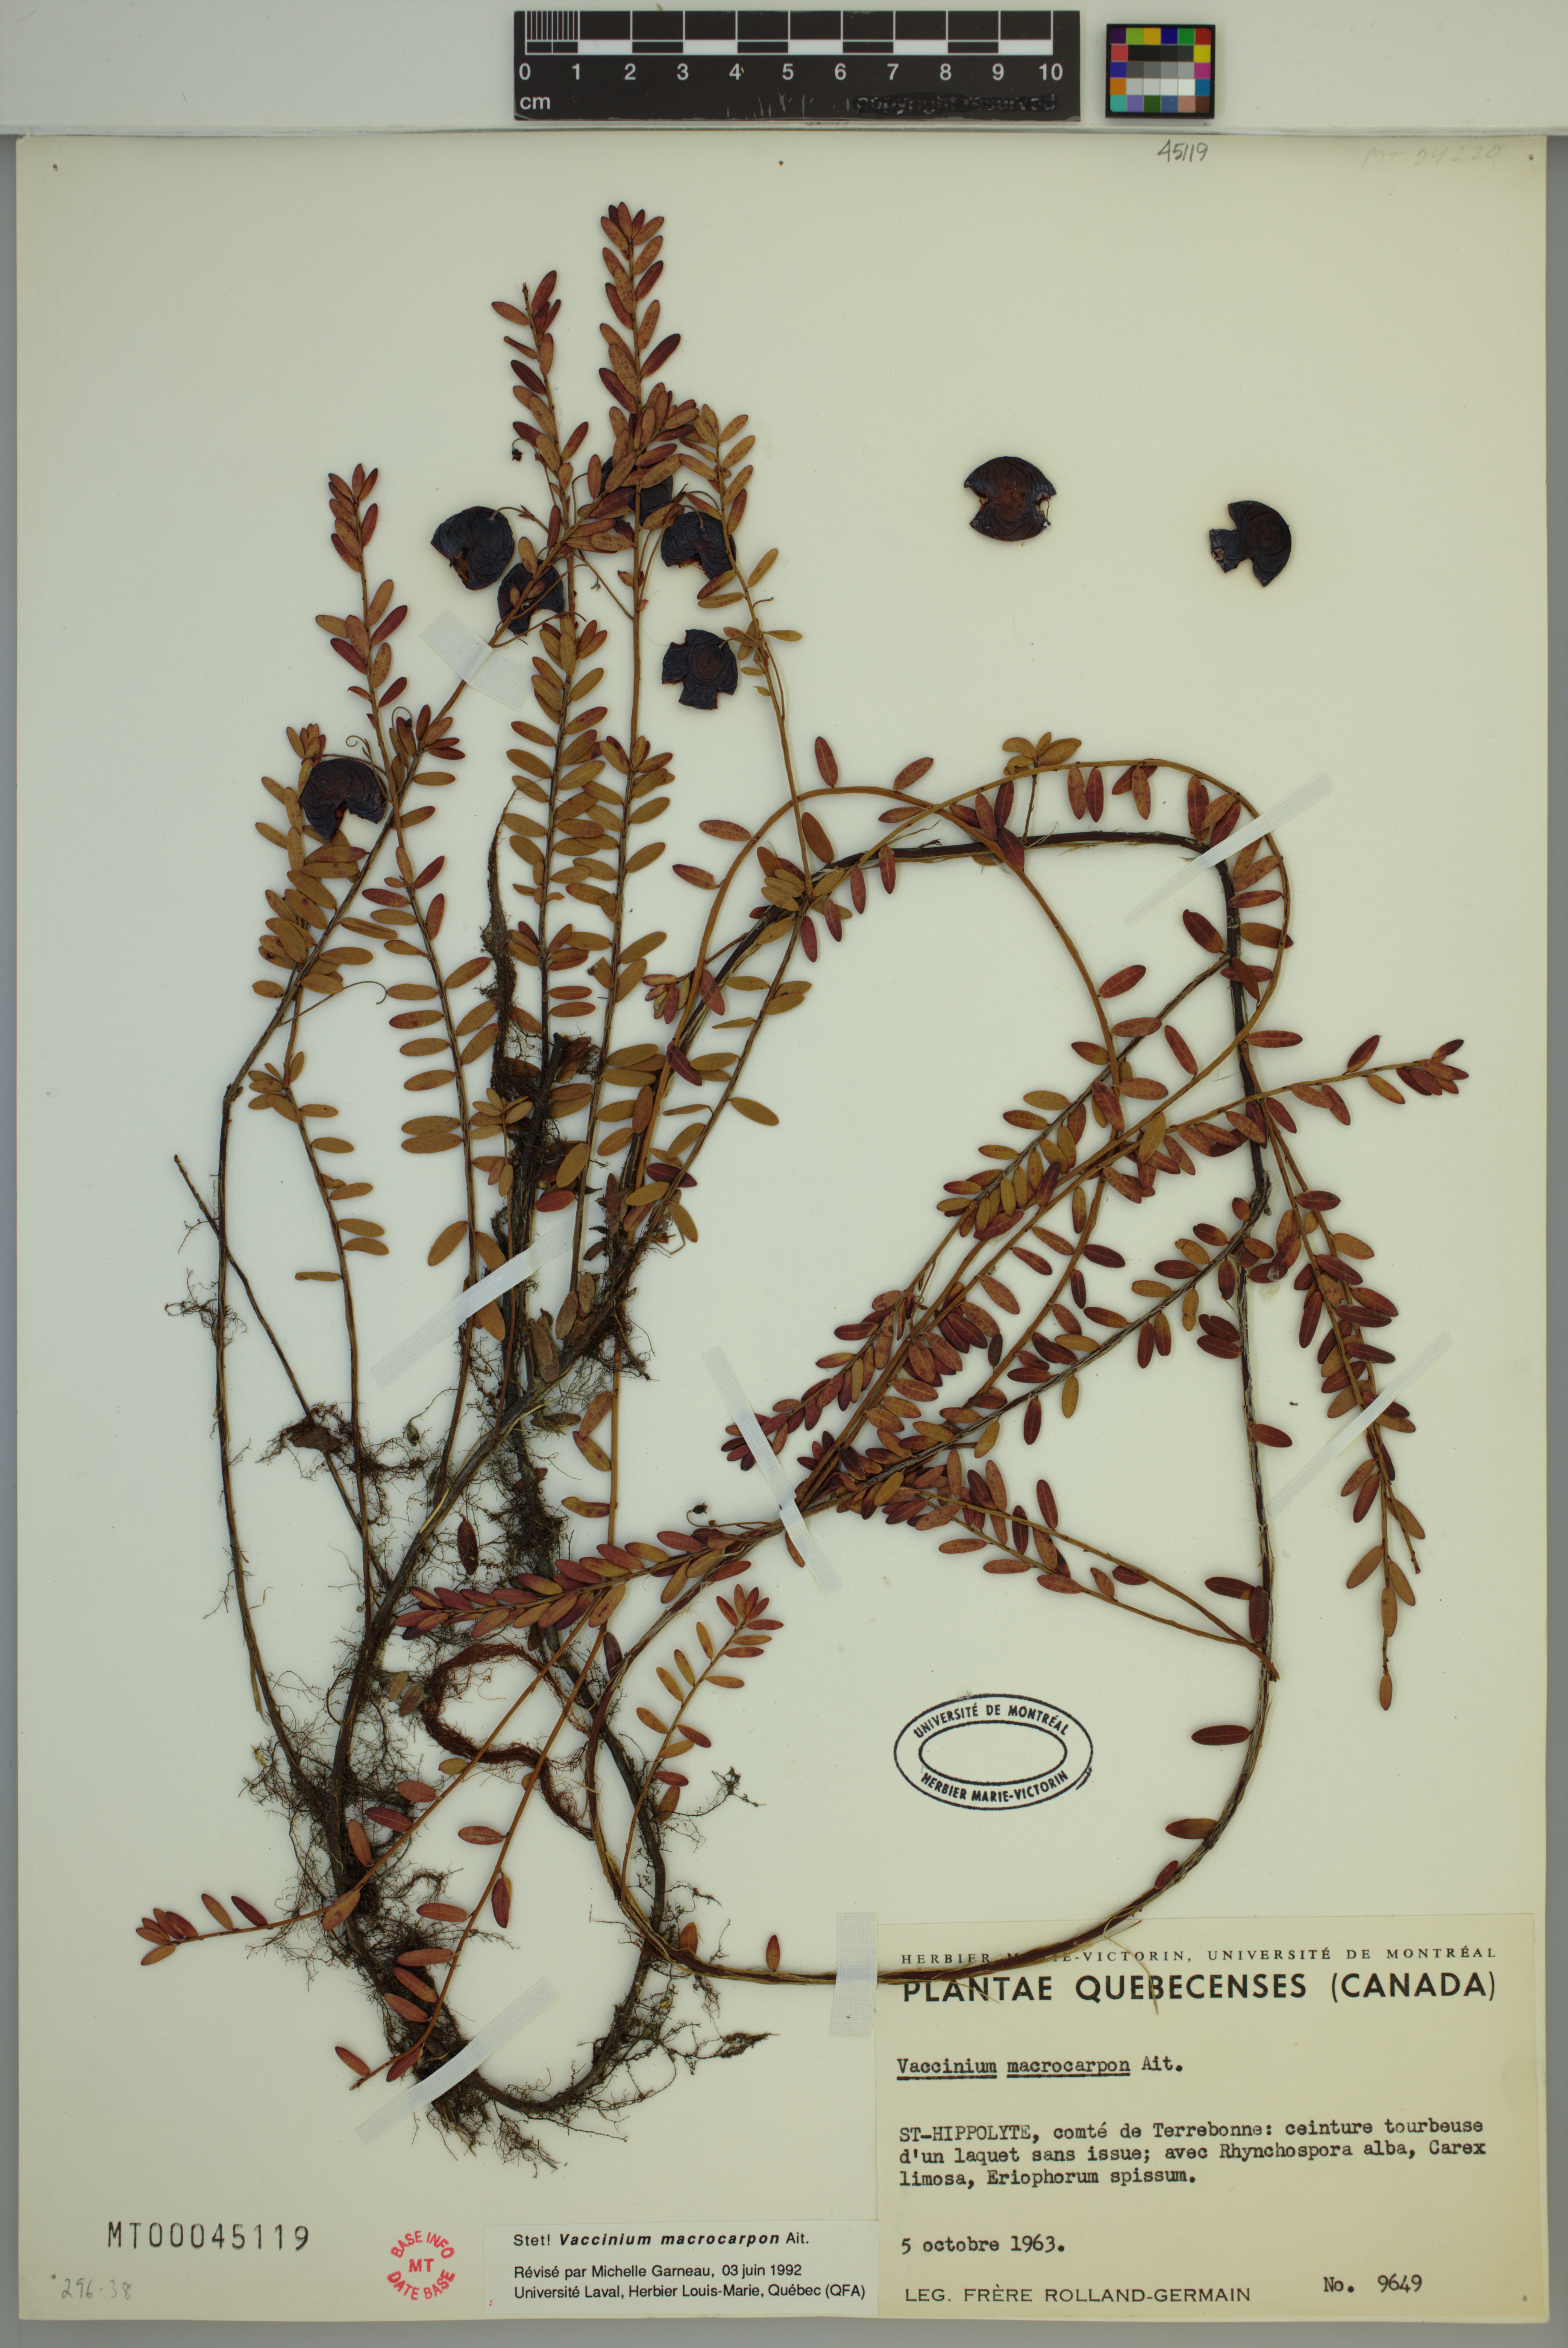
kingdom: Plantae
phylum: Tracheophyta
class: Magnoliopsida
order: Ericales
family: Ericaceae
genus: Vaccinium
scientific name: Vaccinium macrocarpon
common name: American cranberry
